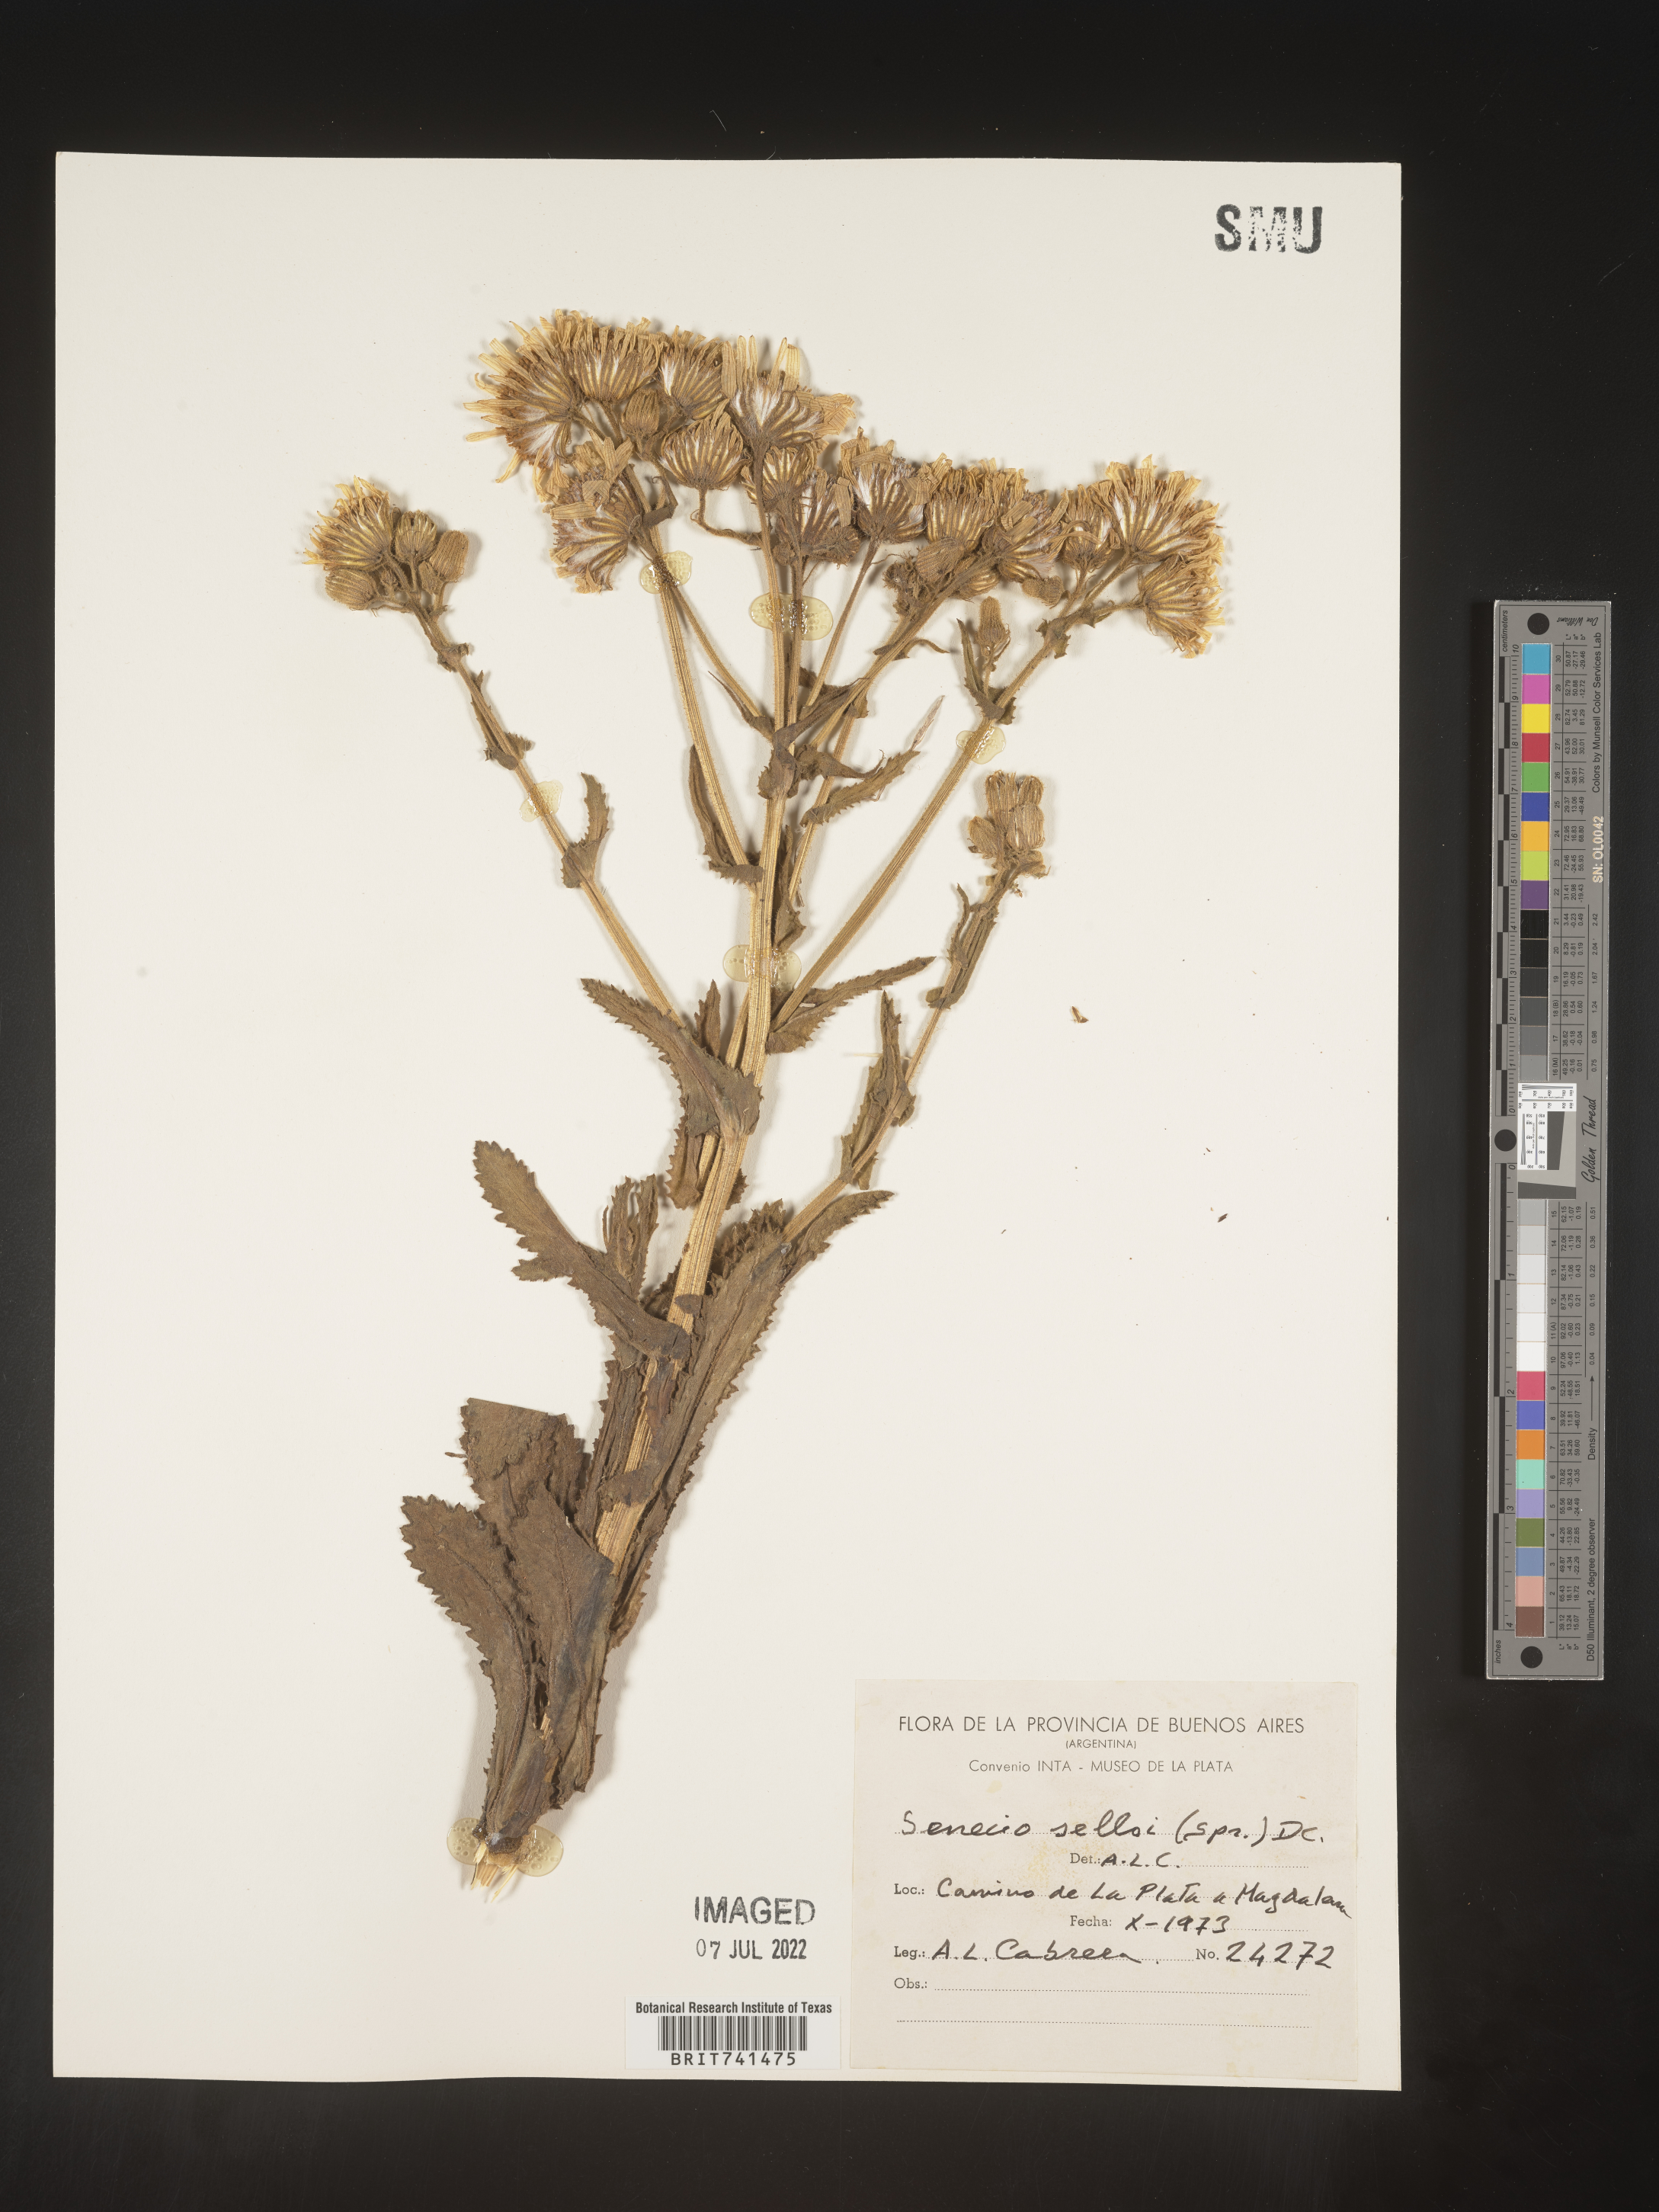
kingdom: Plantae
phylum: Tracheophyta
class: Magnoliopsida
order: Asterales
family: Asteraceae
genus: Senecio
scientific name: Senecio
